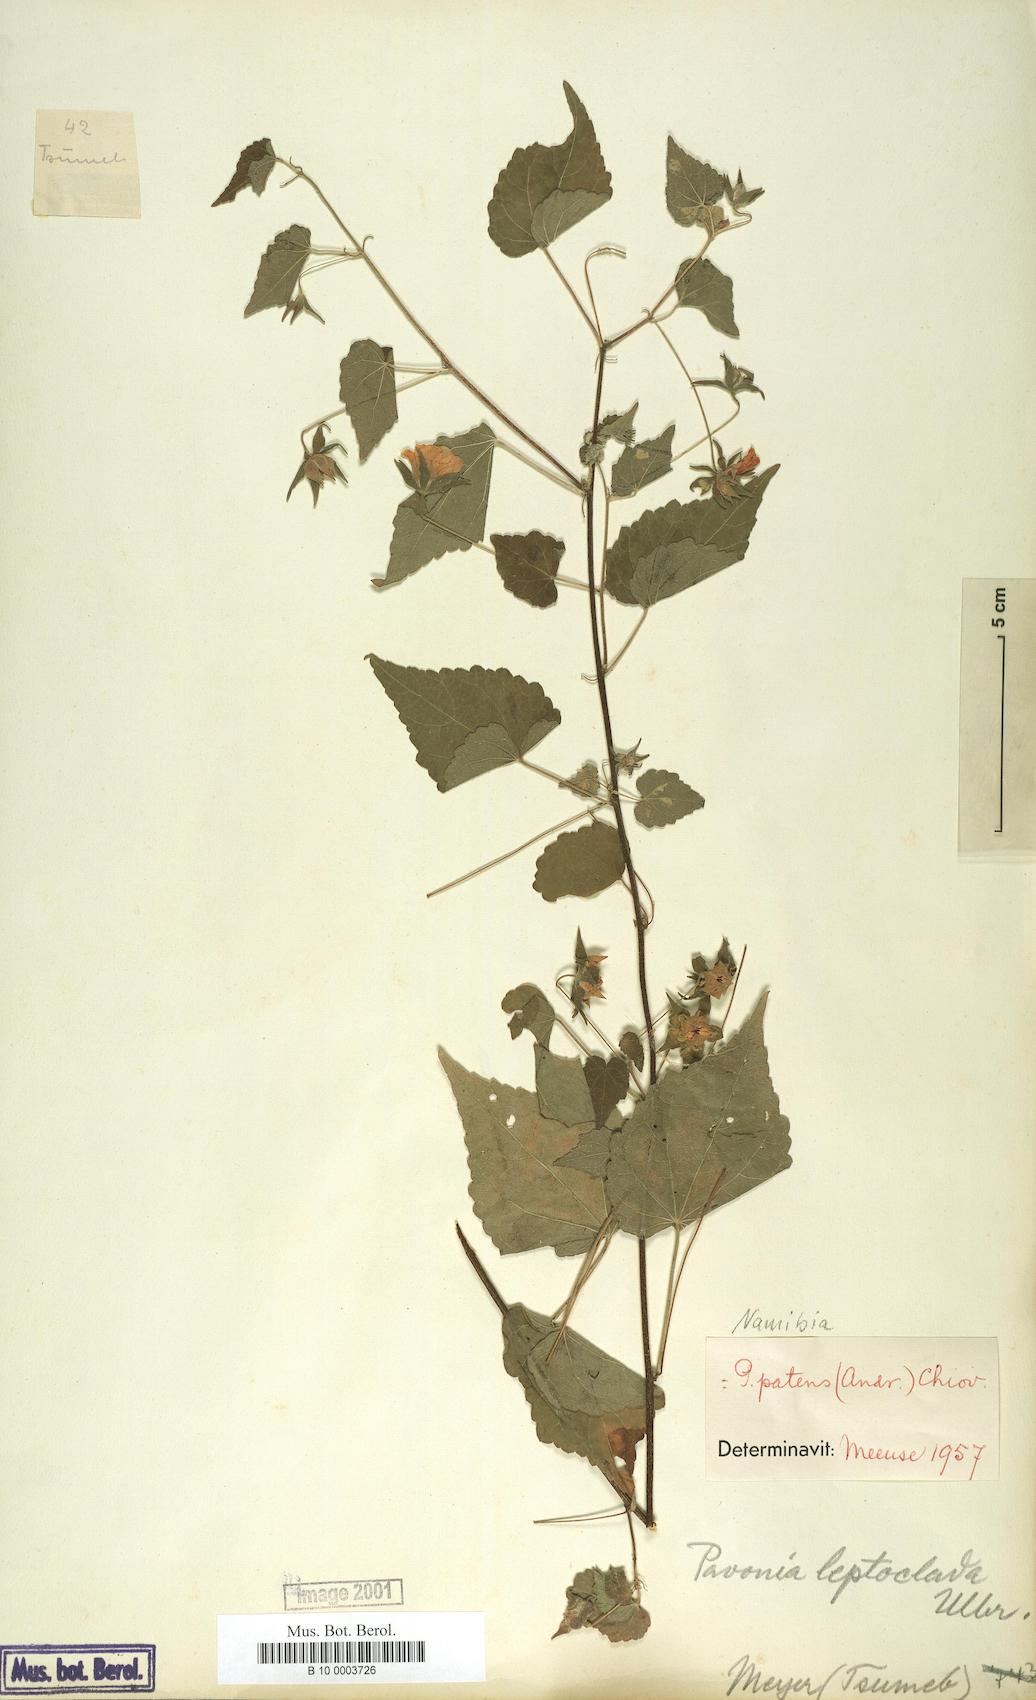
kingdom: Plantae
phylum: Tracheophyta
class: Magnoliopsida
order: Malvales
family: Malvaceae
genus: Abutilon
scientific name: Abutilon mauritianum
